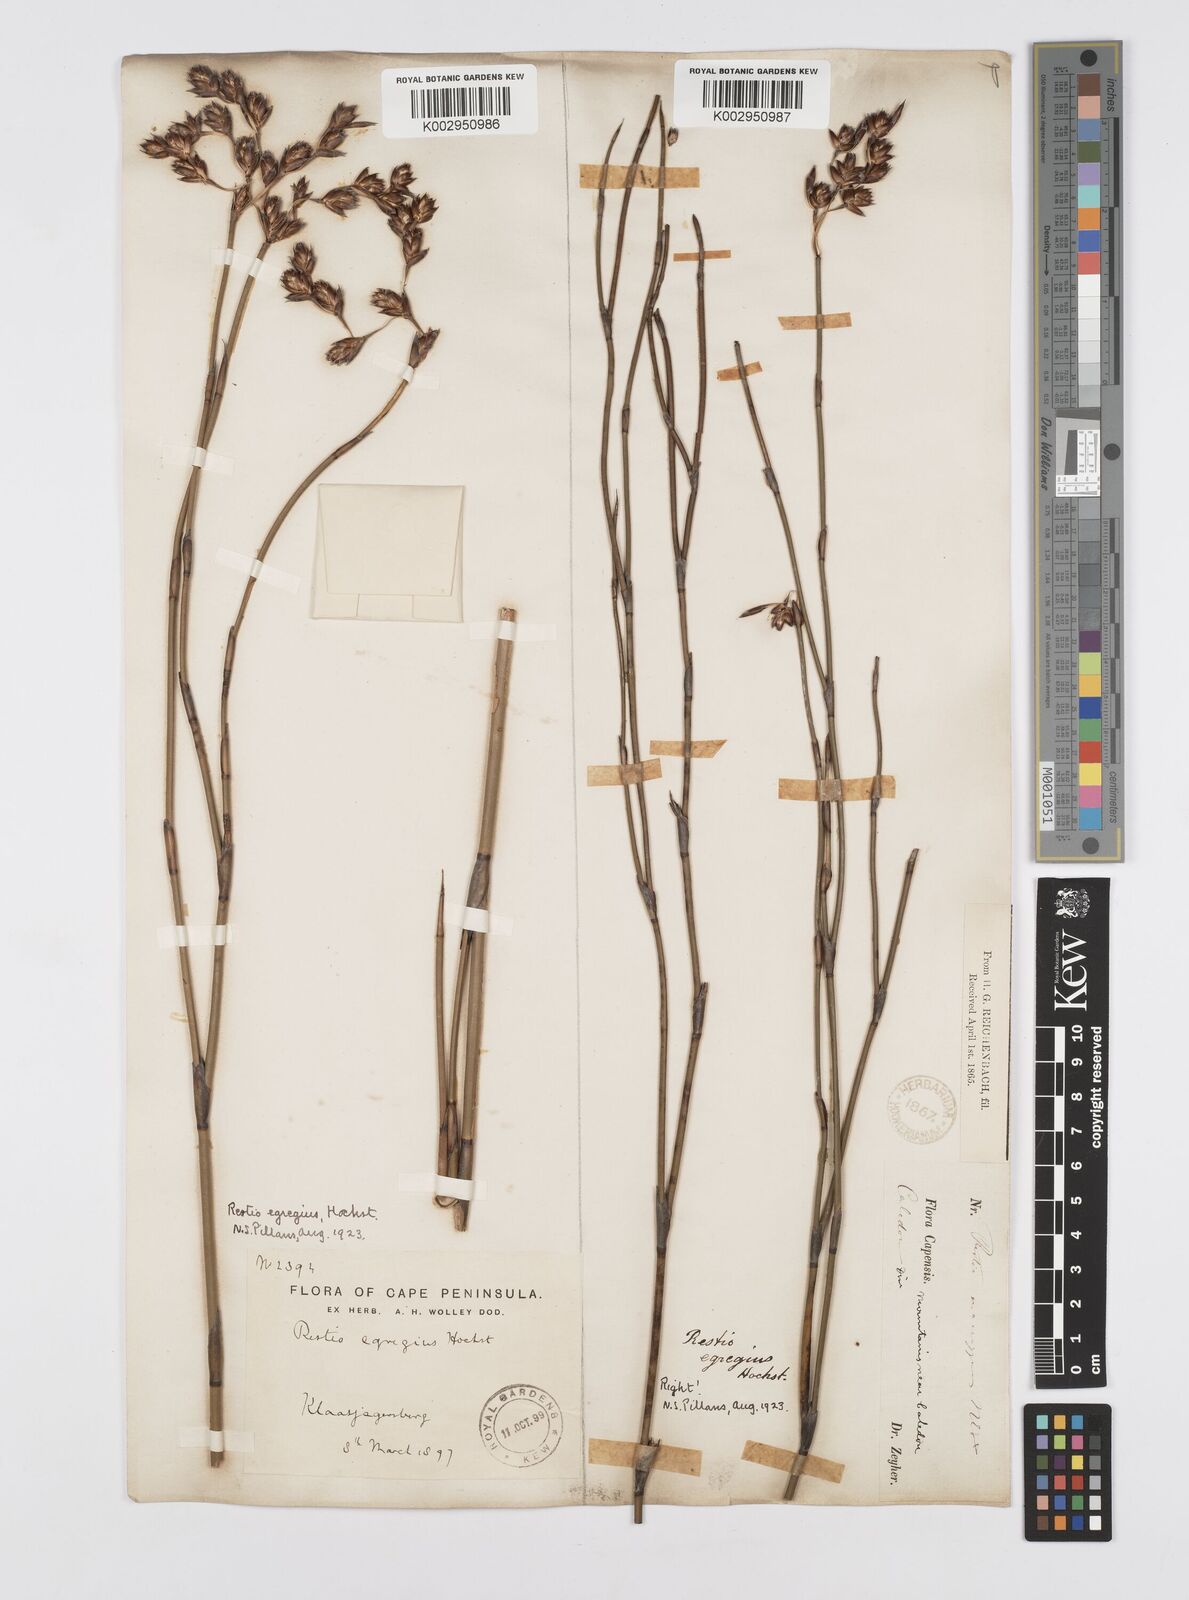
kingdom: Plantae
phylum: Tracheophyta
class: Liliopsida
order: Poales
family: Restionaceae
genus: Restio
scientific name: Restio egregius
